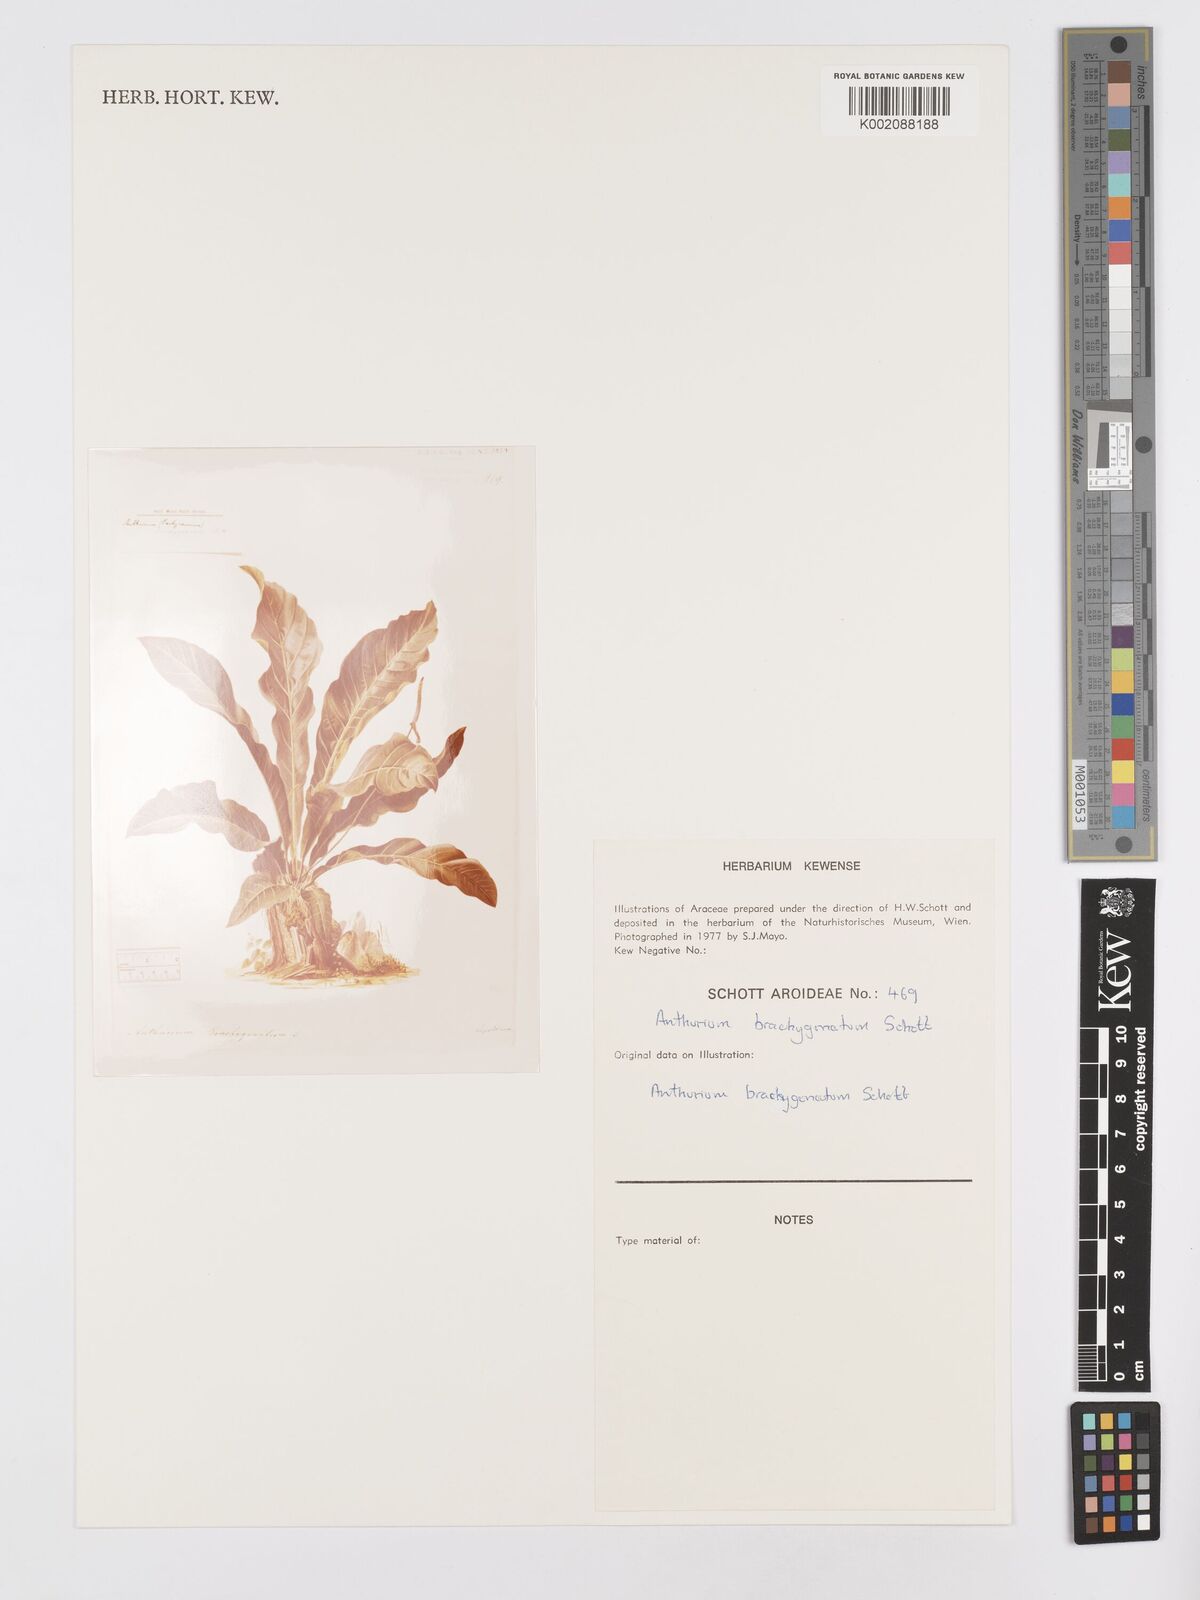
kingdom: Plantae
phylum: Tracheophyta
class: Liliopsida
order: Alismatales
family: Araceae
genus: Anthurium
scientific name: Anthurium schlechtendalii
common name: Laceleaf
